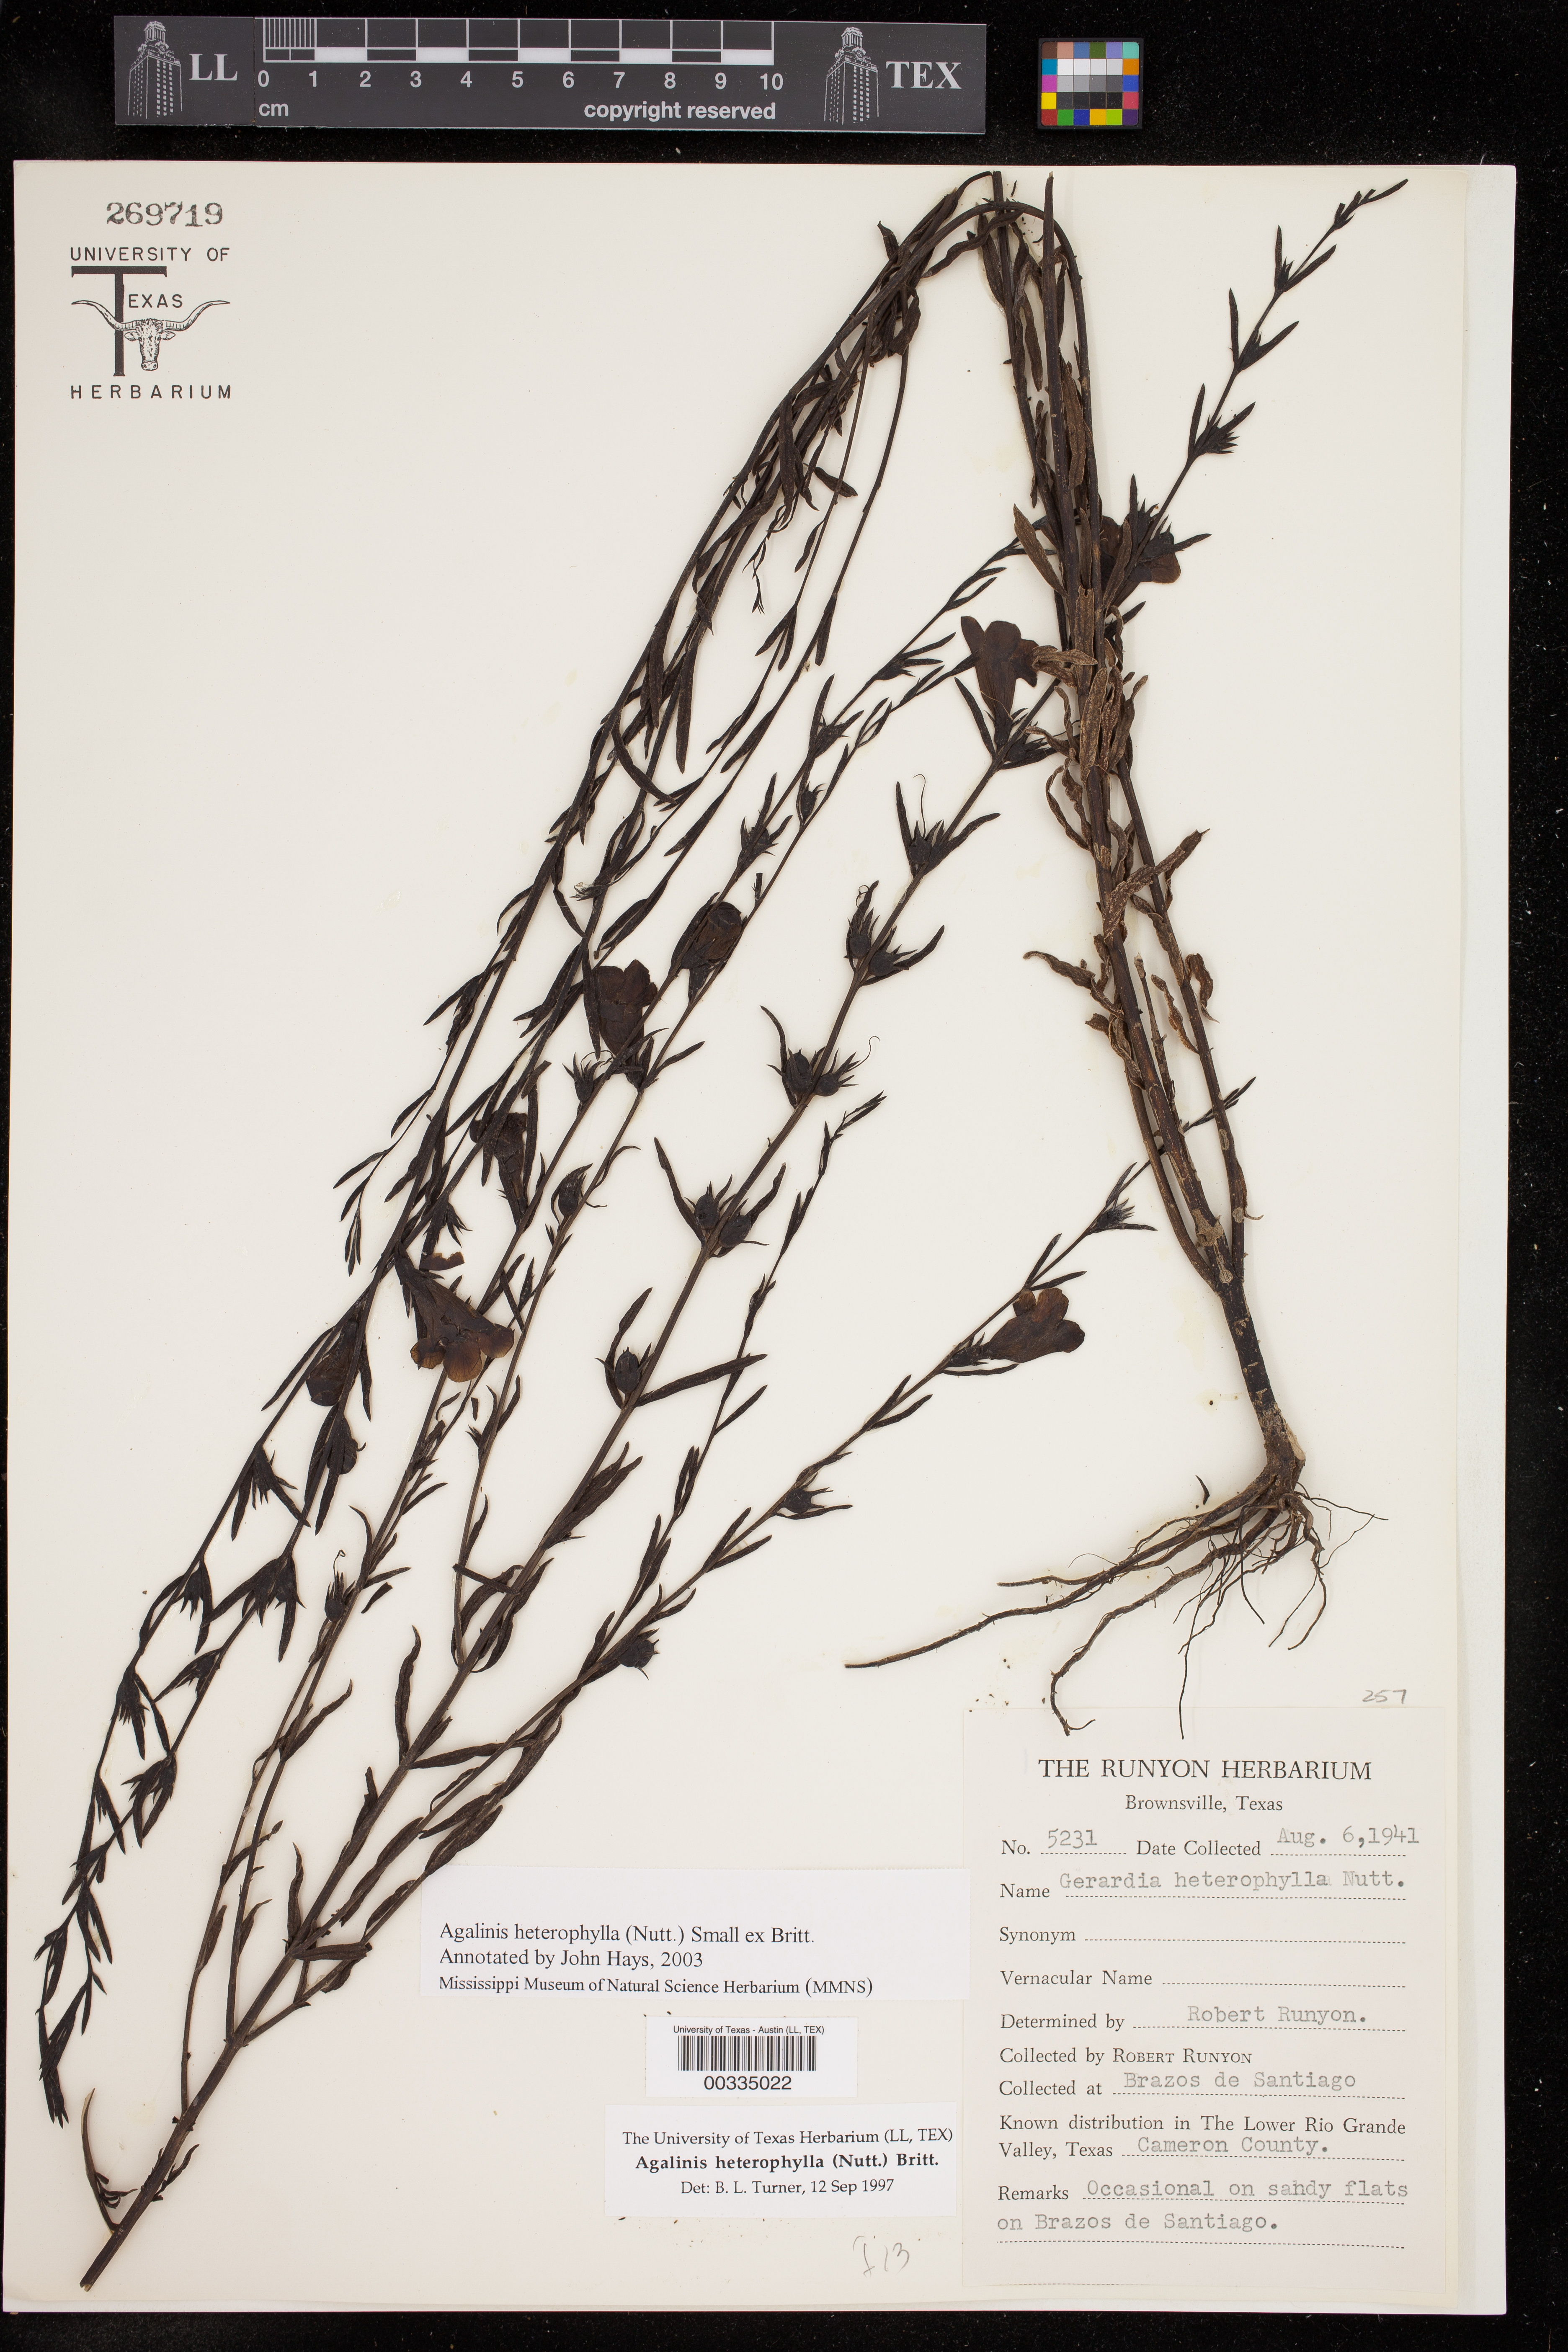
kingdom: Plantae
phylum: Tracheophyta
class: Magnoliopsida
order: Lamiales
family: Orobanchaceae
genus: Agalinis
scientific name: Agalinis heterophylla
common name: Prairie agalinis
